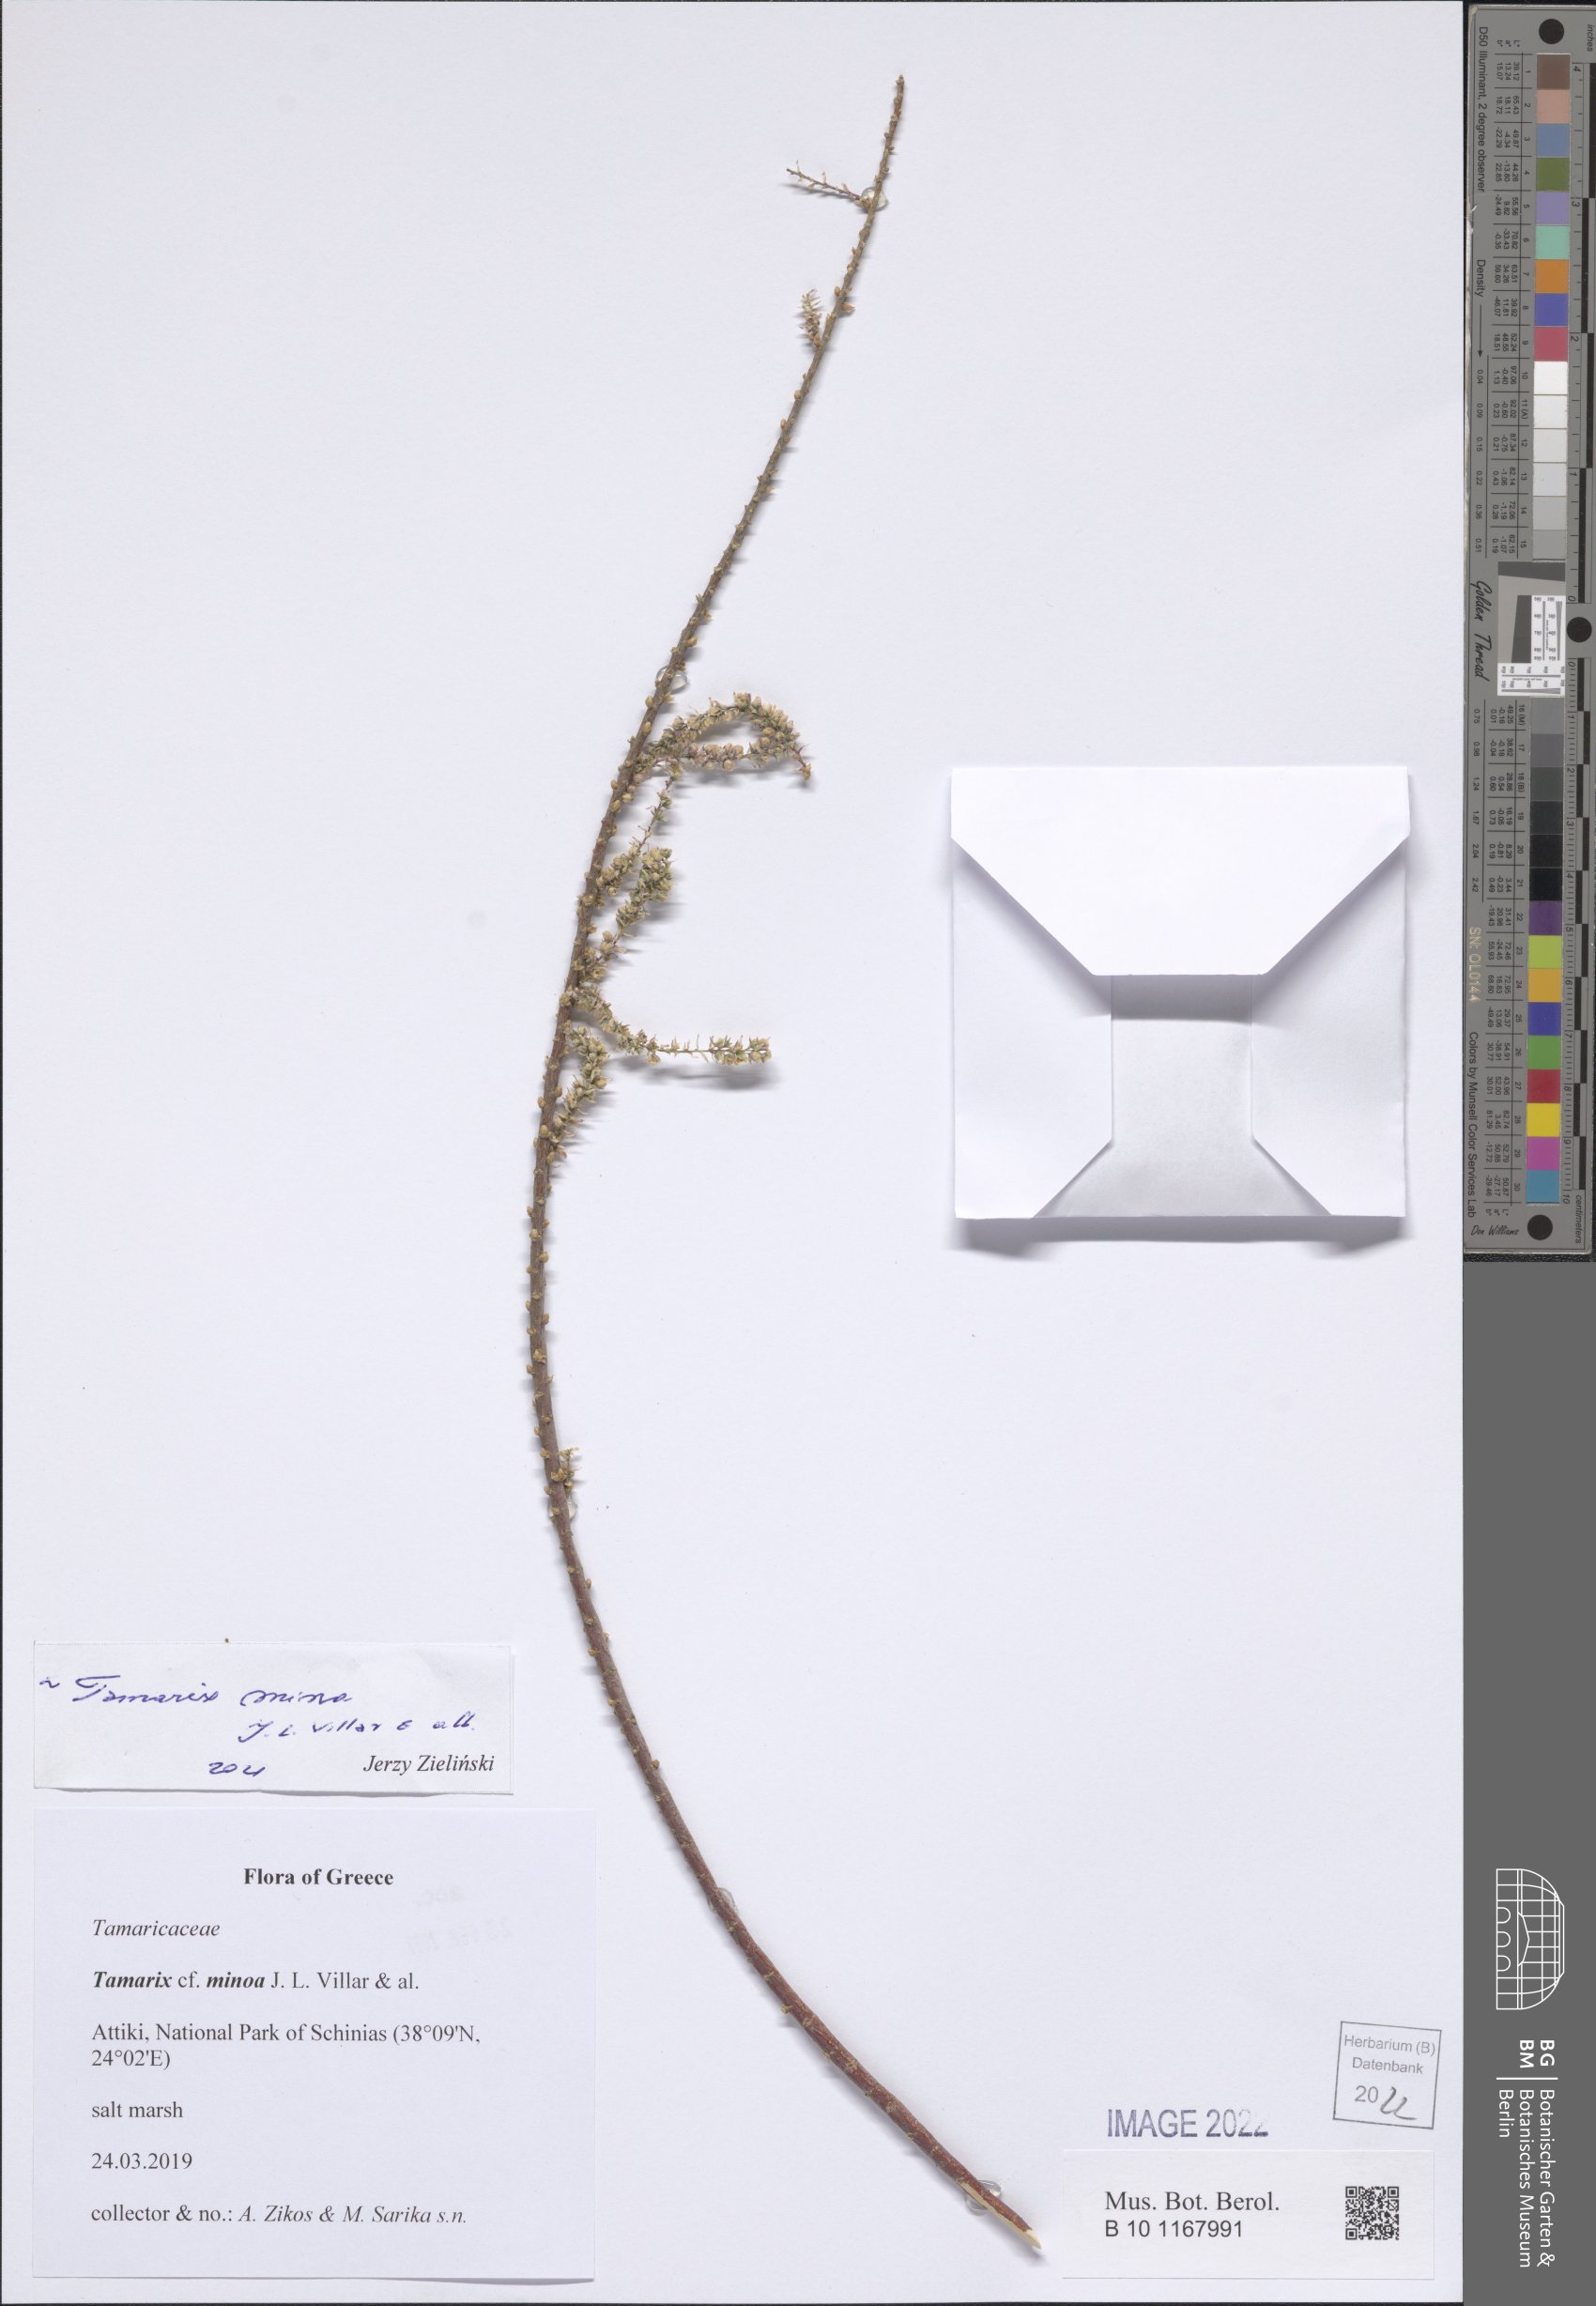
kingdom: Plantae
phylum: Tracheophyta
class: Magnoliopsida
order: Caryophyllales
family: Tamaricaceae
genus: Tamarix
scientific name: Tamarix minoa
